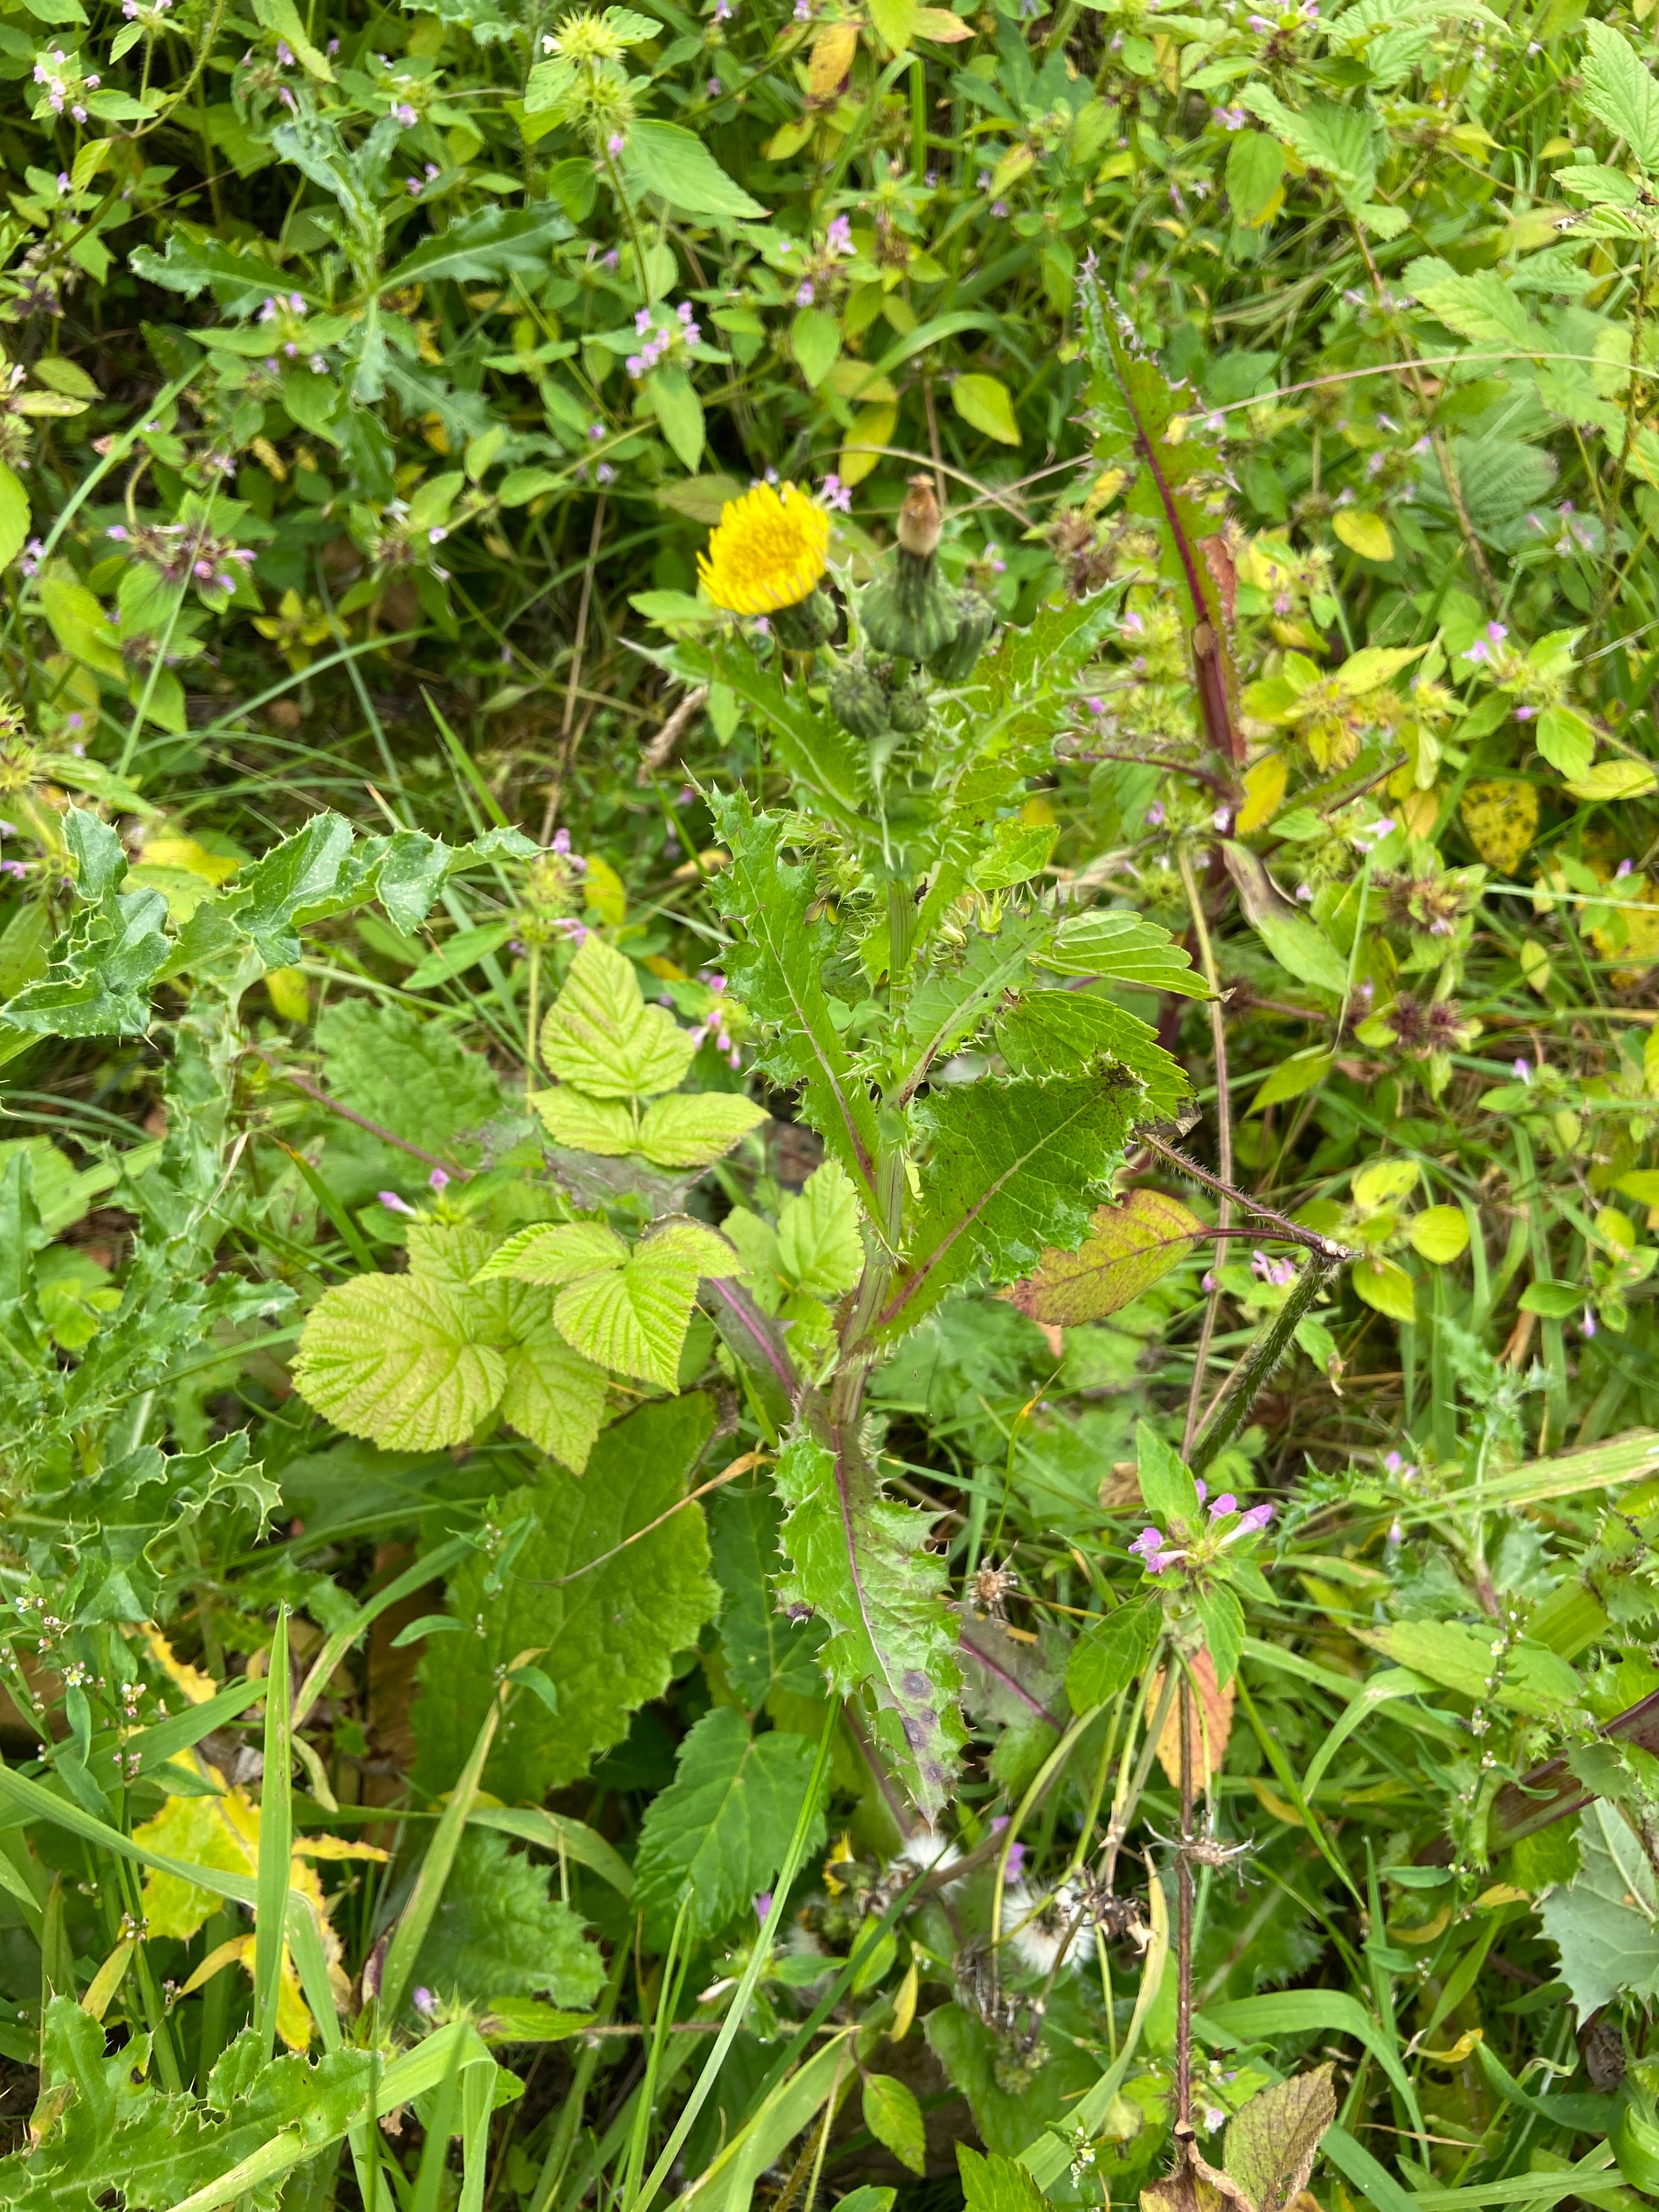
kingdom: Plantae
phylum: Tracheophyta
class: Magnoliopsida
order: Asterales
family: Asteraceae
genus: Sonchus
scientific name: Sonchus asper
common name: Ru svinemælk
